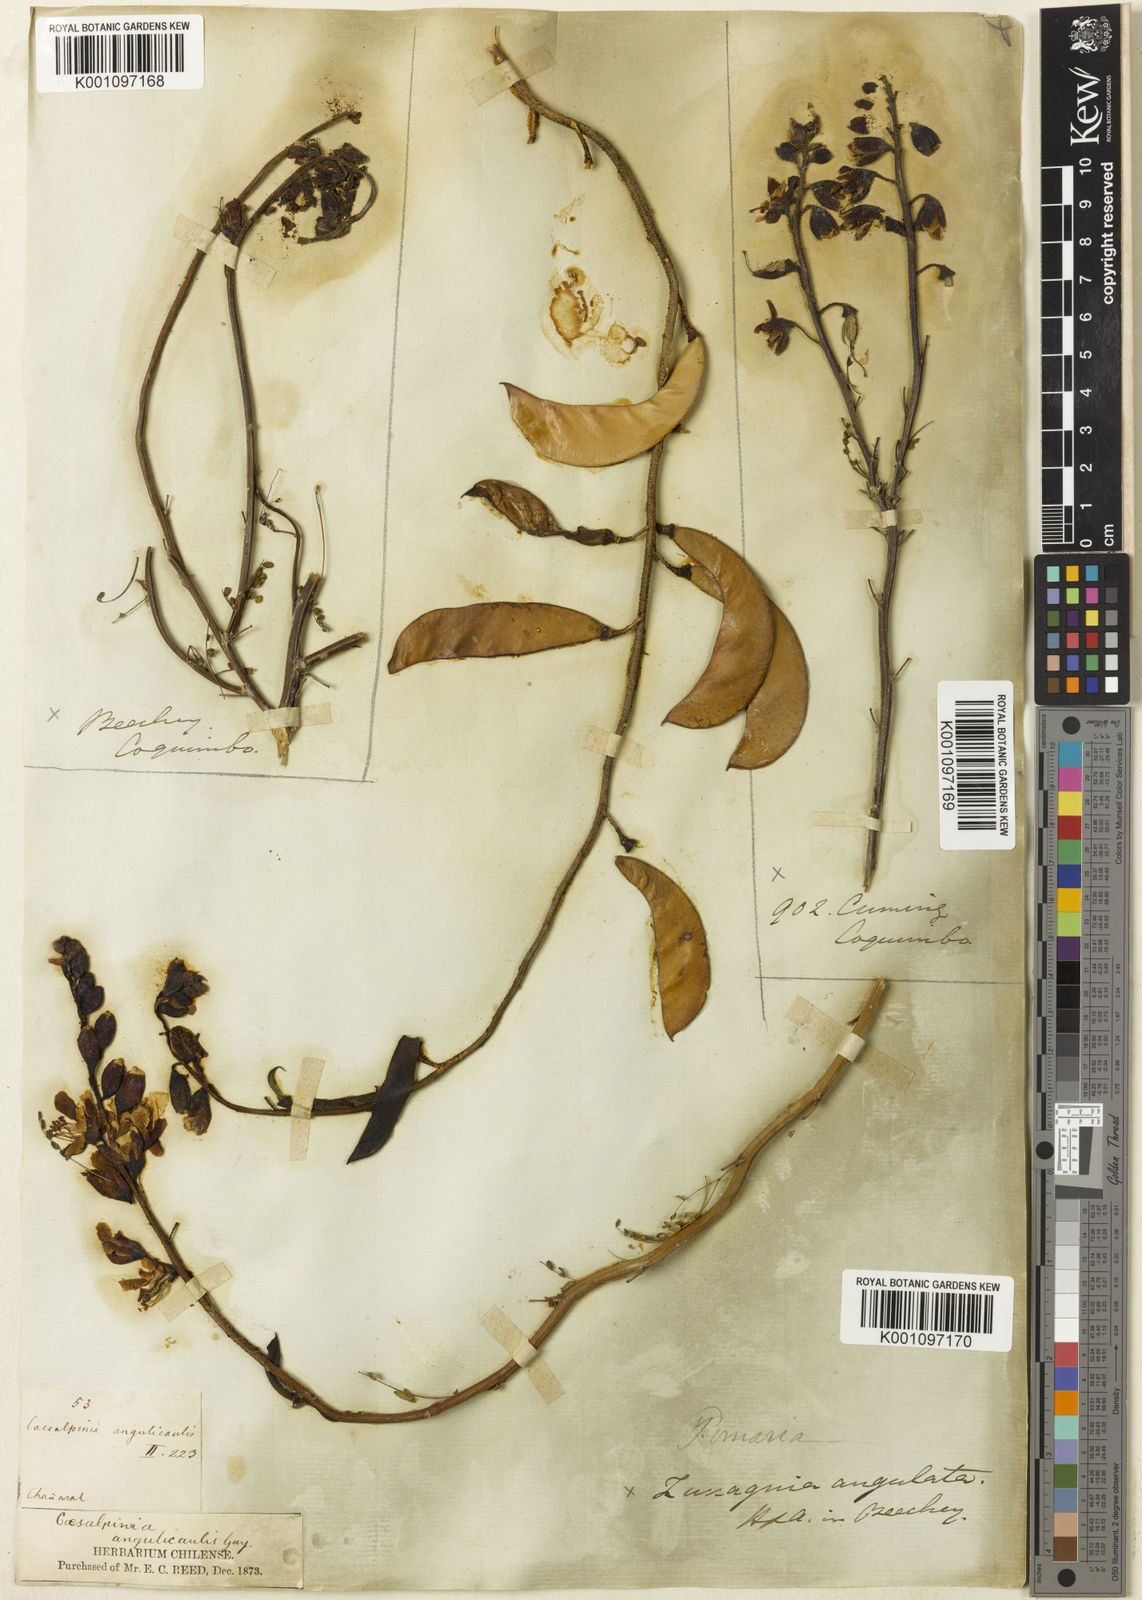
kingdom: Plantae
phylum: Tracheophyta
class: Magnoliopsida
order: Fabales
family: Fabaceae
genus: Caesalpinia
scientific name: Caesalpinia
